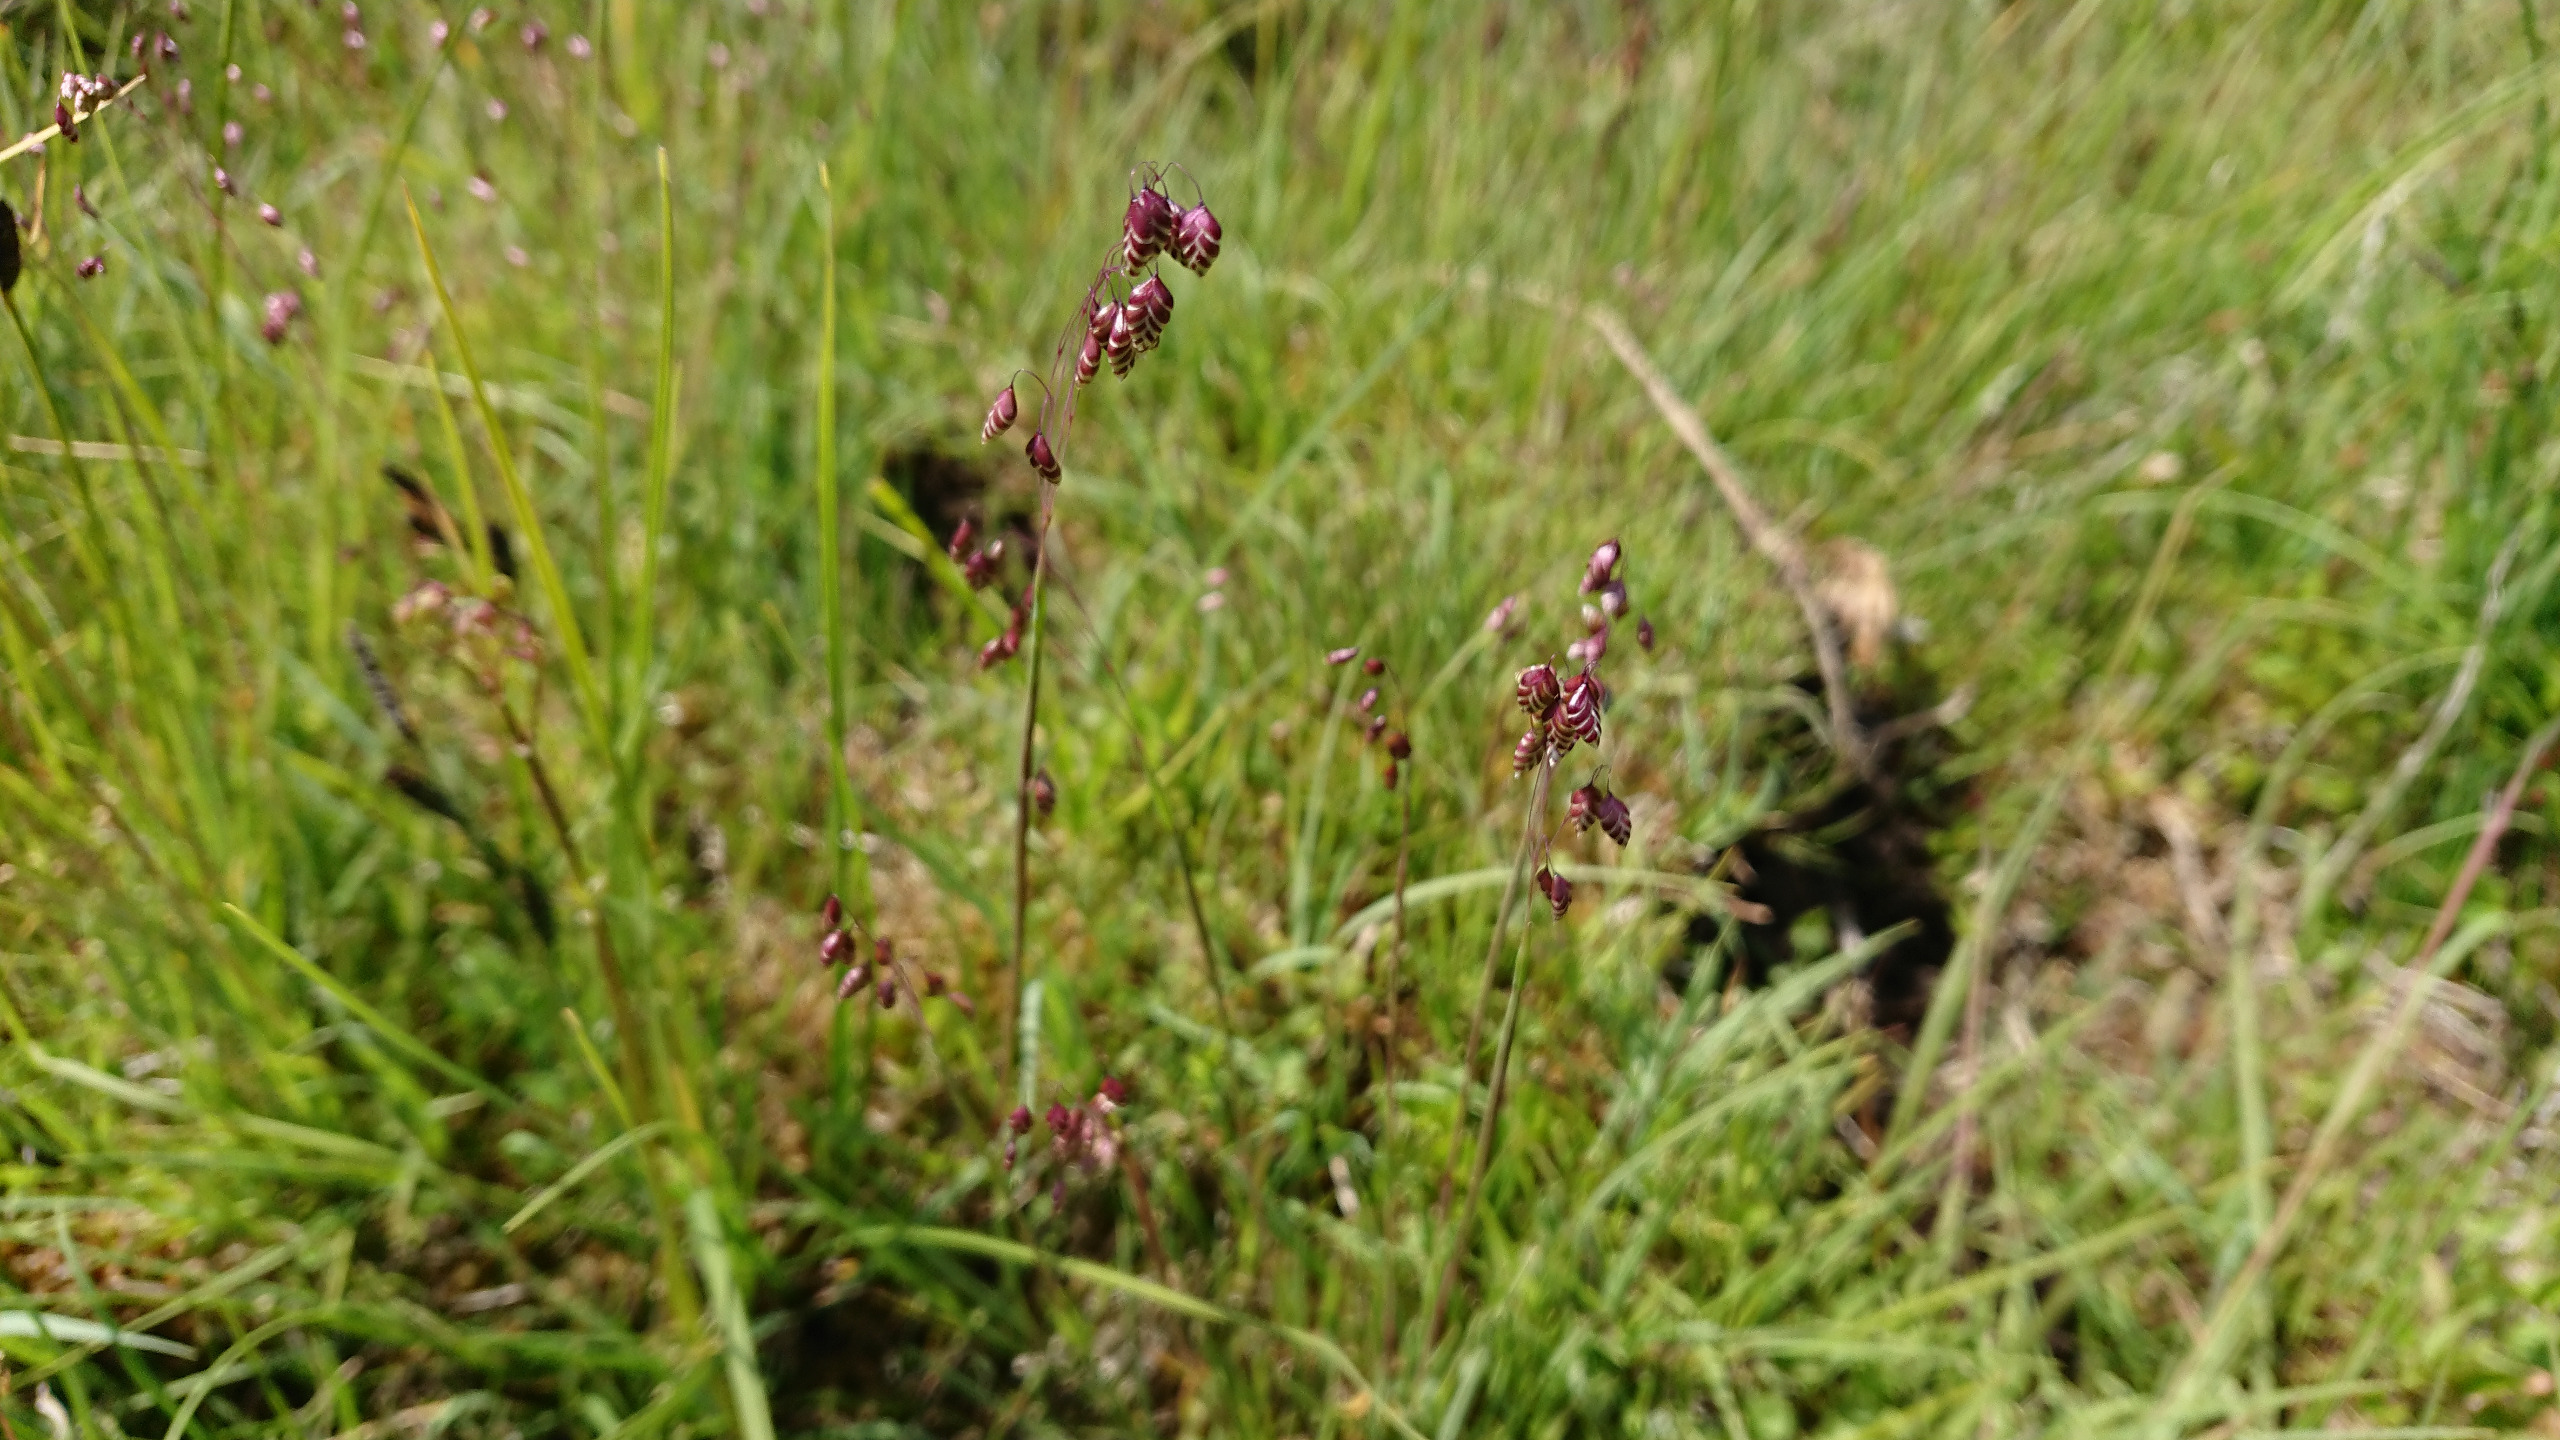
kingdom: Plantae
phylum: Tracheophyta
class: Liliopsida
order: Poales
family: Poaceae
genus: Briza
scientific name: Briza media
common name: Hjertegræs
